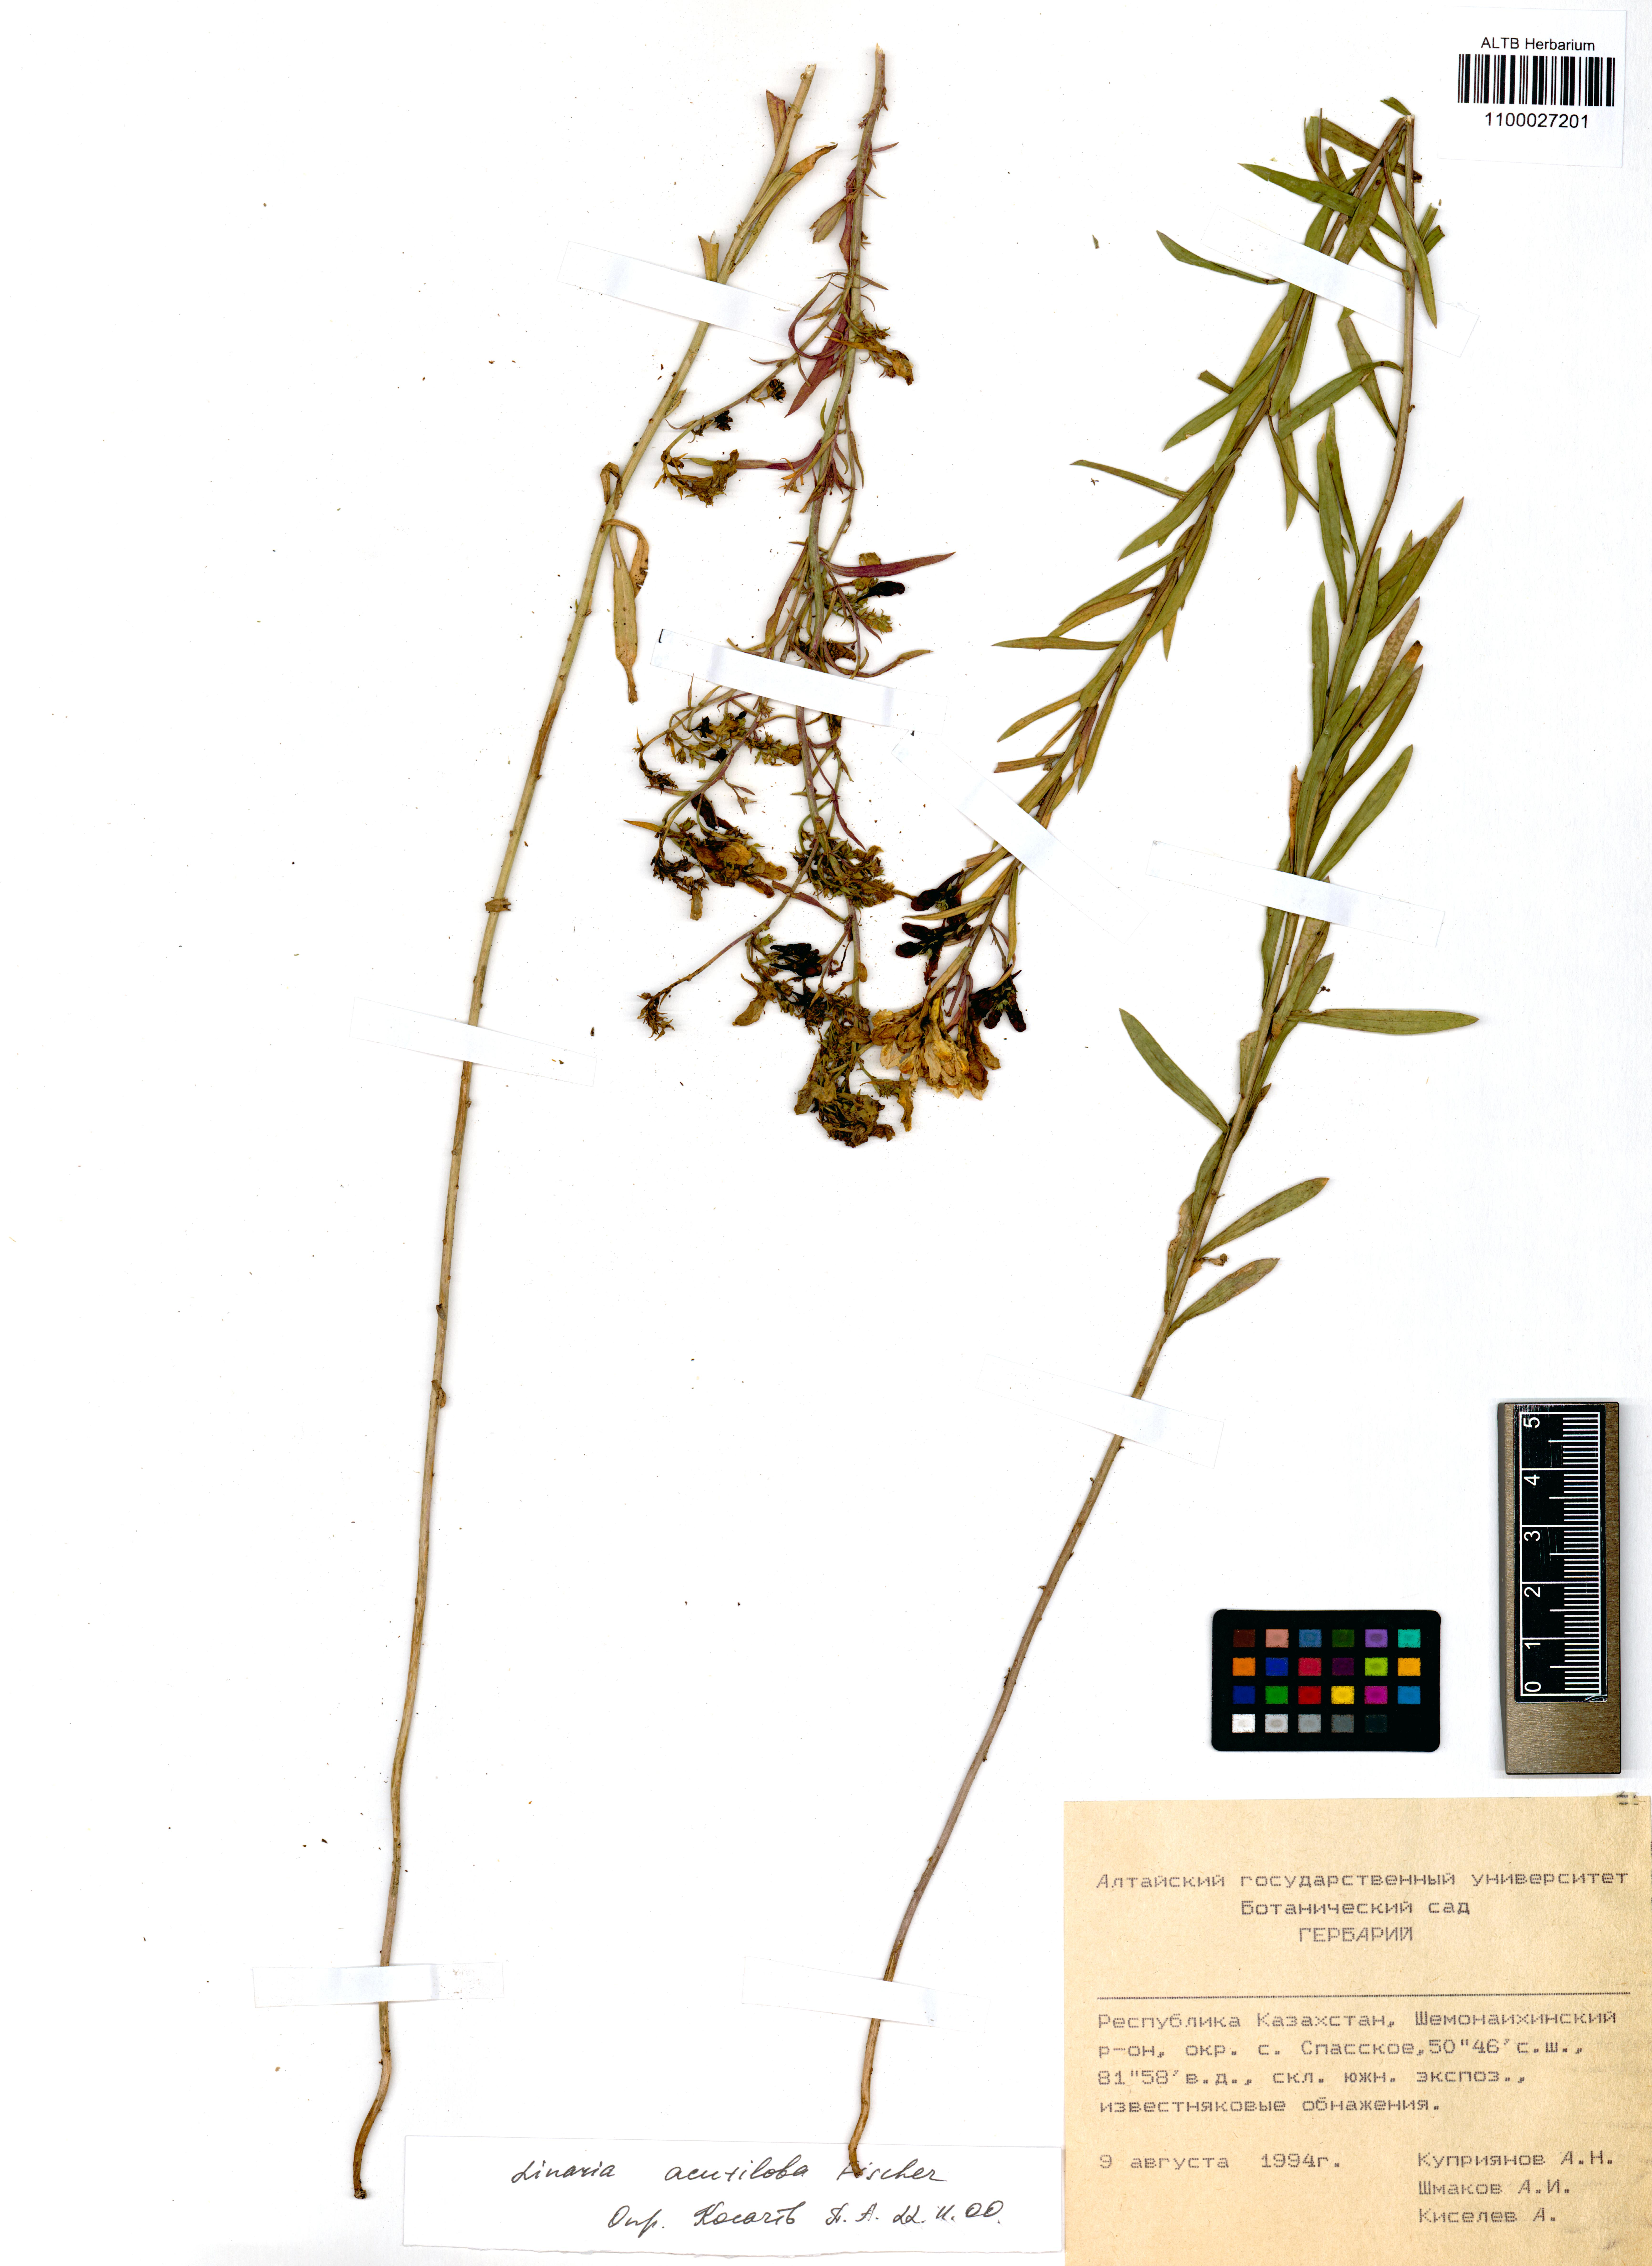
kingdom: Plantae
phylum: Tracheophyta
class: Magnoliopsida
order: Lamiales
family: Plantaginaceae
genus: Linaria
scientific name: Linaria acutiloba
